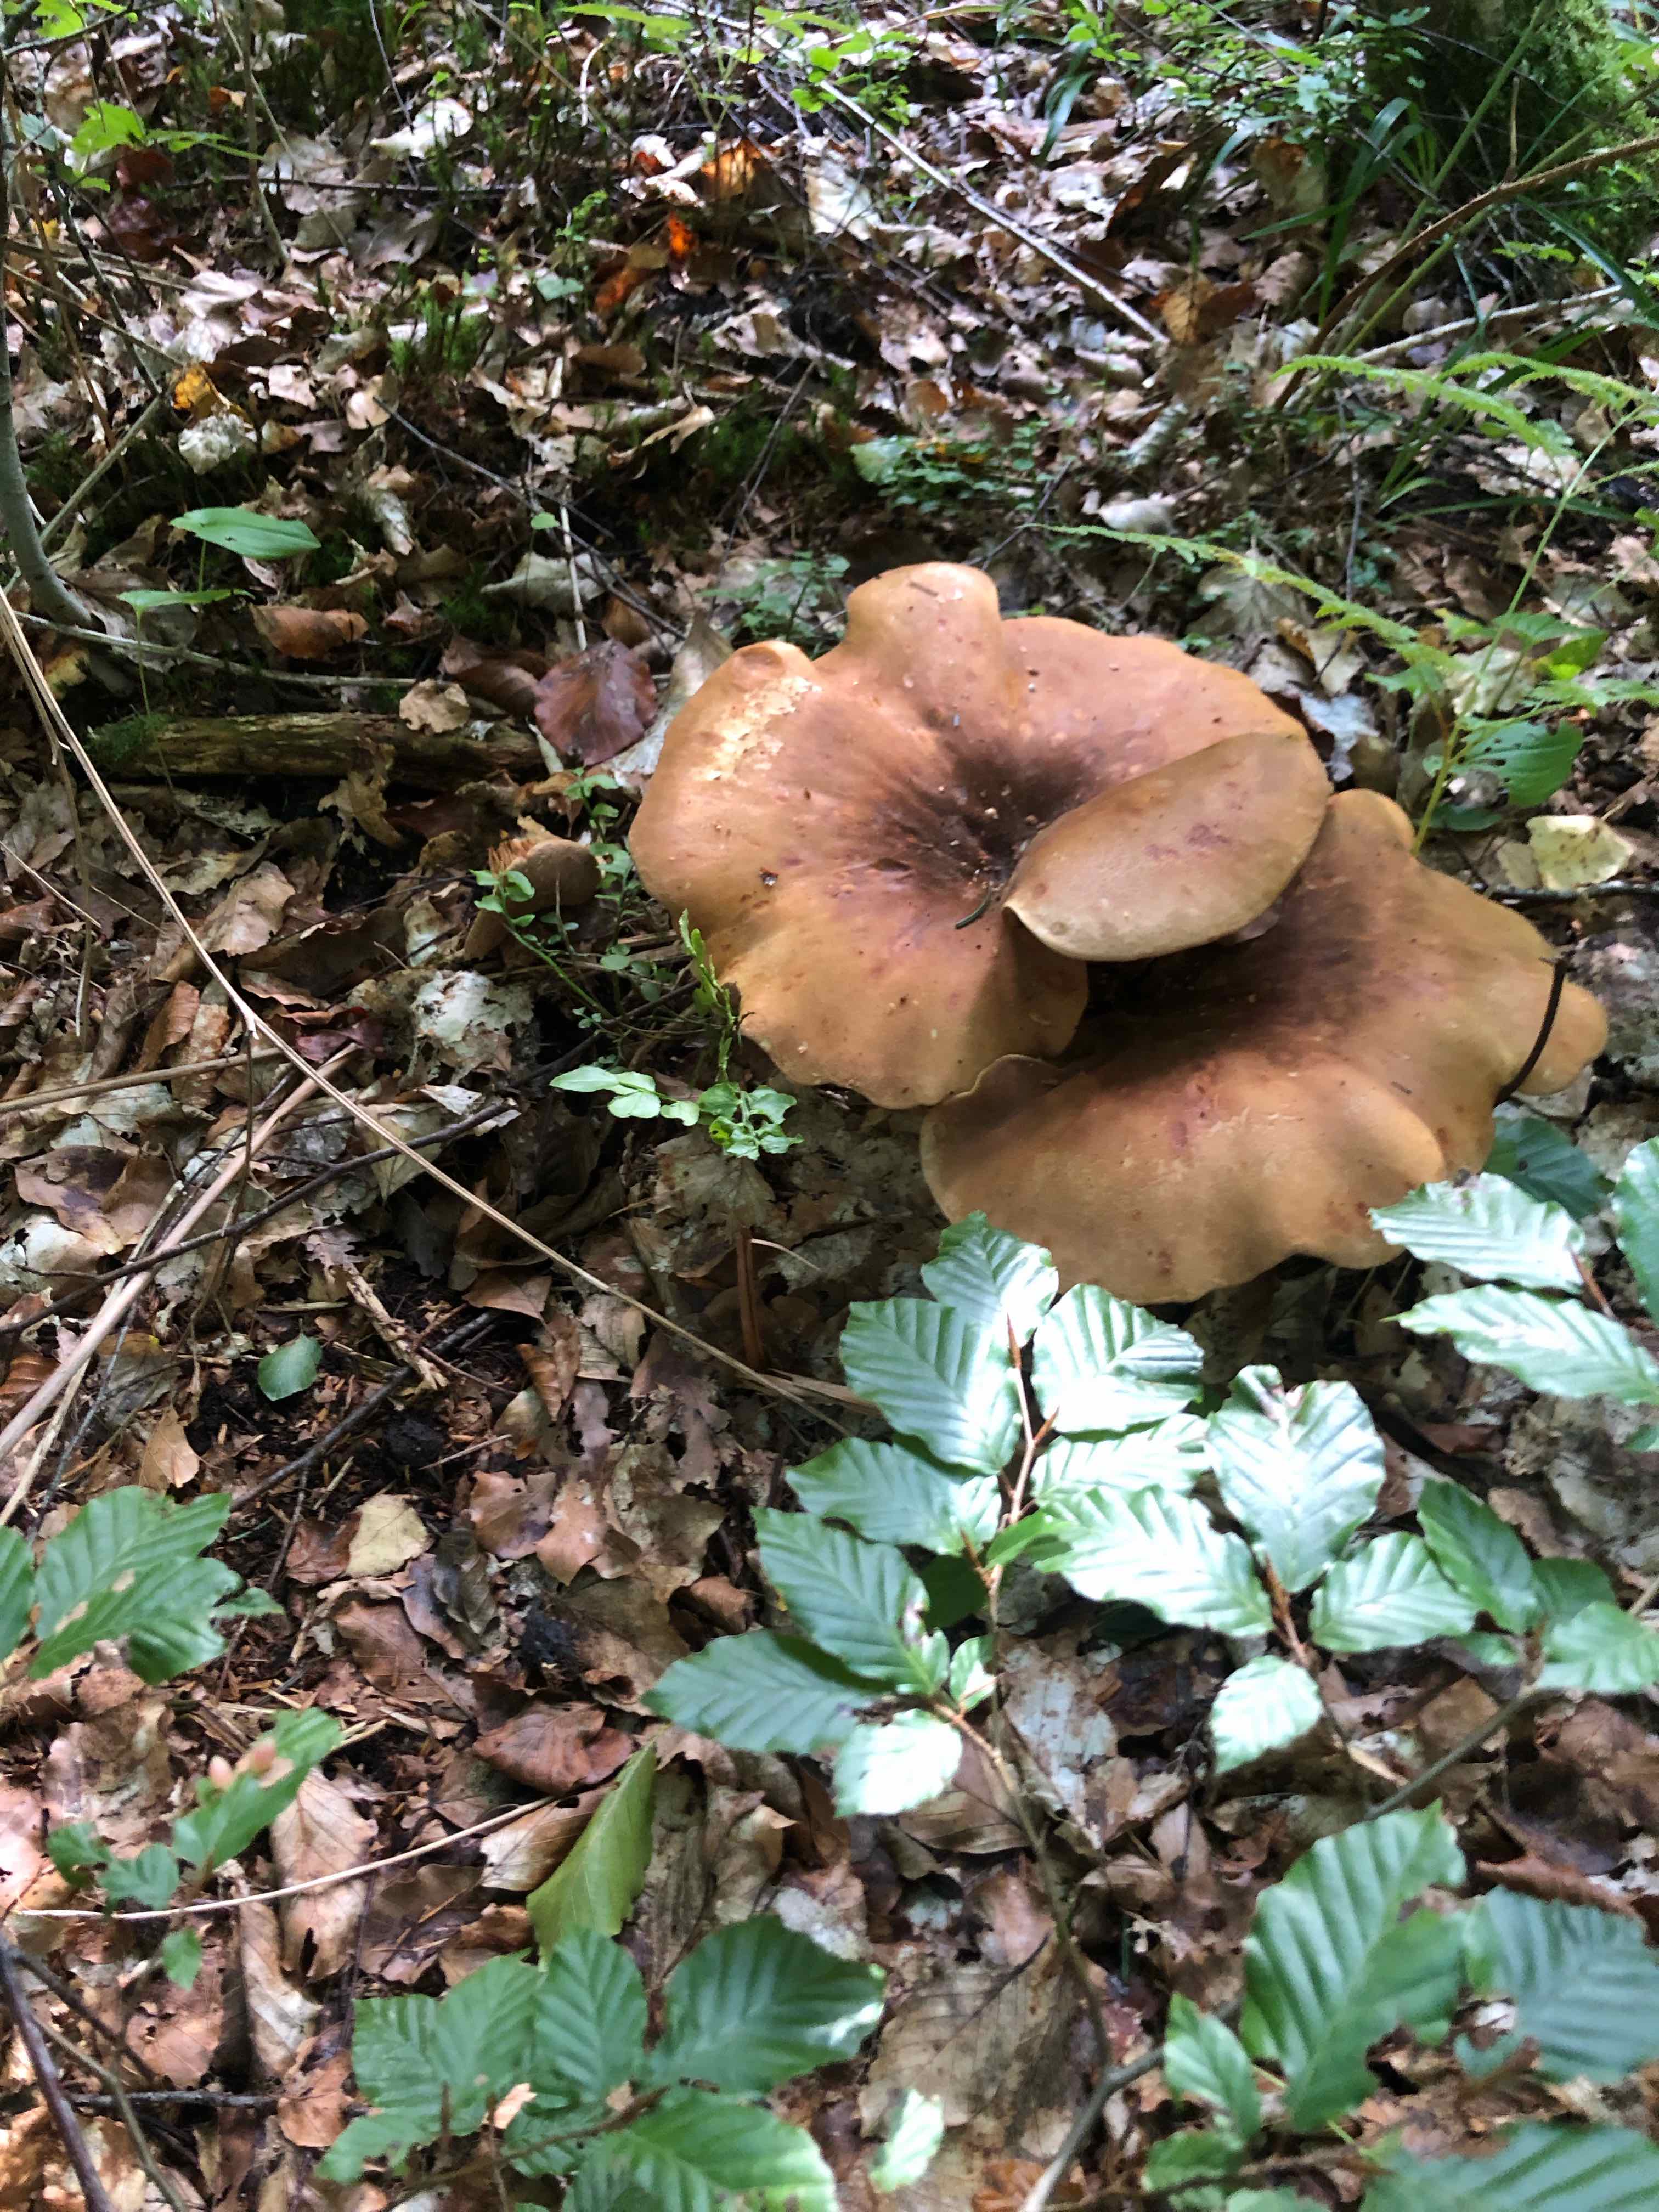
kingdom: Fungi
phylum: Basidiomycota
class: Agaricomycetes
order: Boletales
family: Tapinellaceae
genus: Tapinella
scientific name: Tapinella atrotomentosa
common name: sortfiltet viftesvamp
